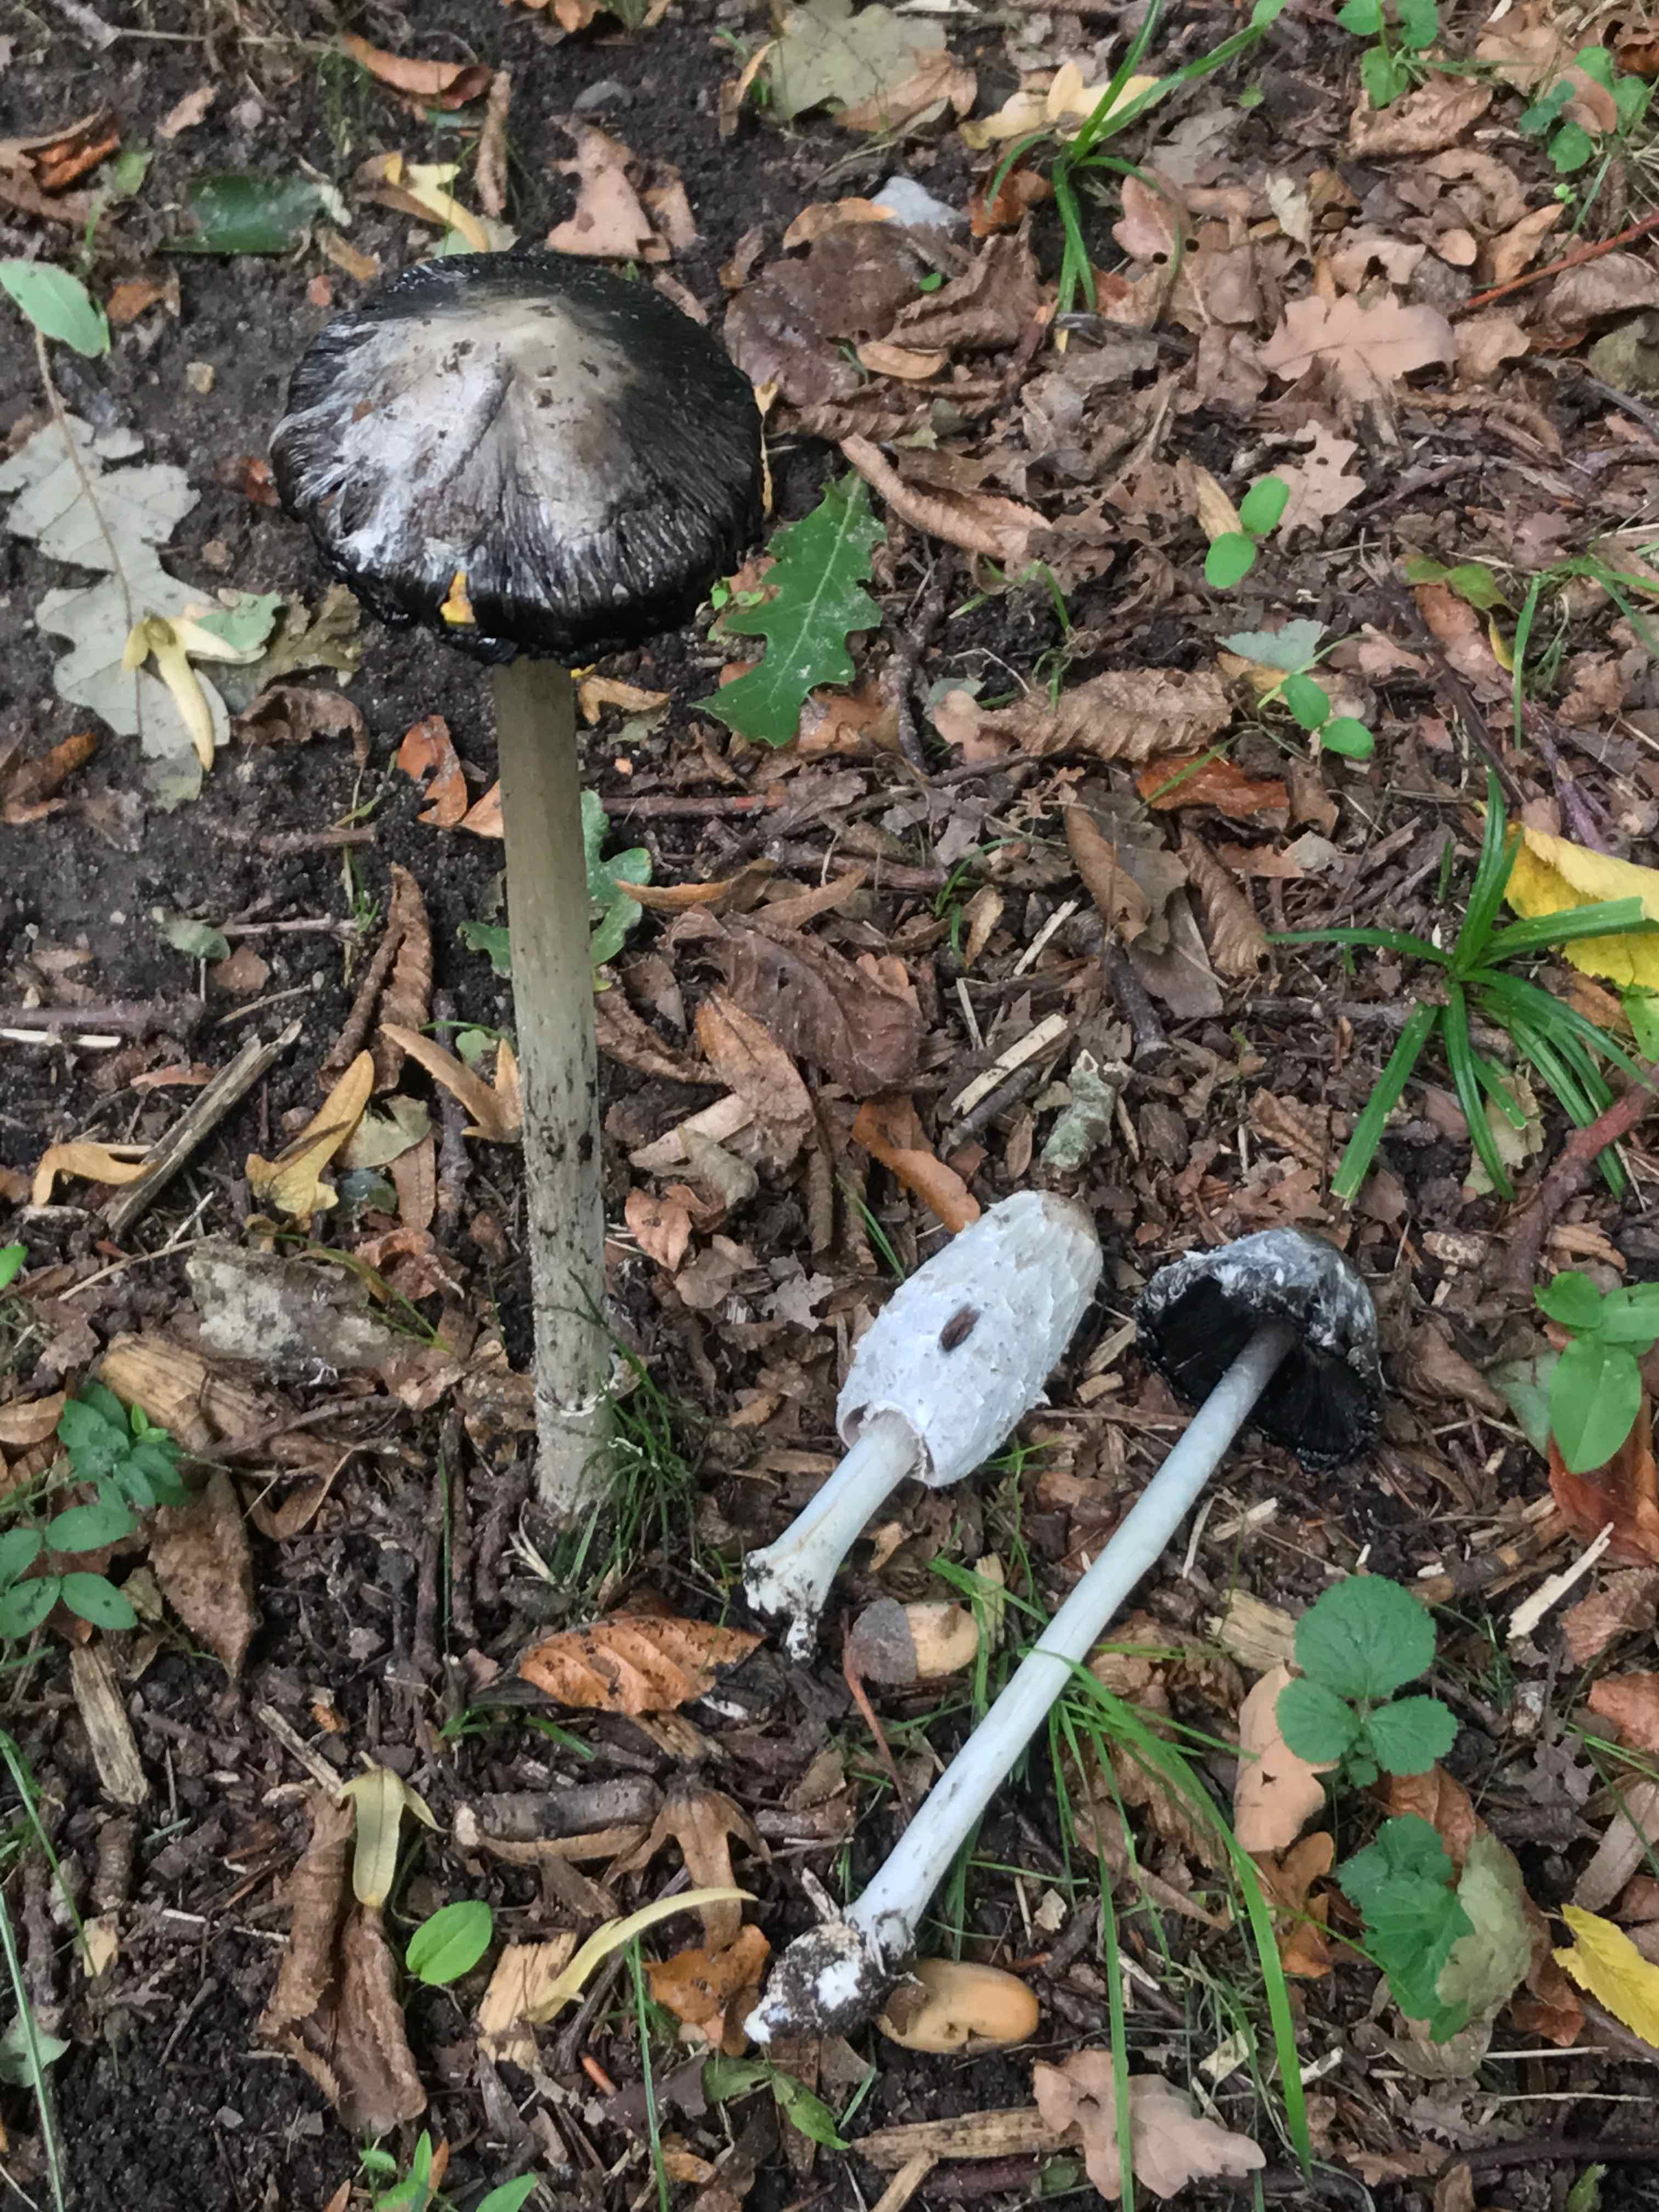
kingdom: Fungi
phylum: Basidiomycota
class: Agaricomycetes
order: Agaricales
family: Agaricaceae
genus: Coprinus
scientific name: Coprinus comatus
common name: stor parykhat
